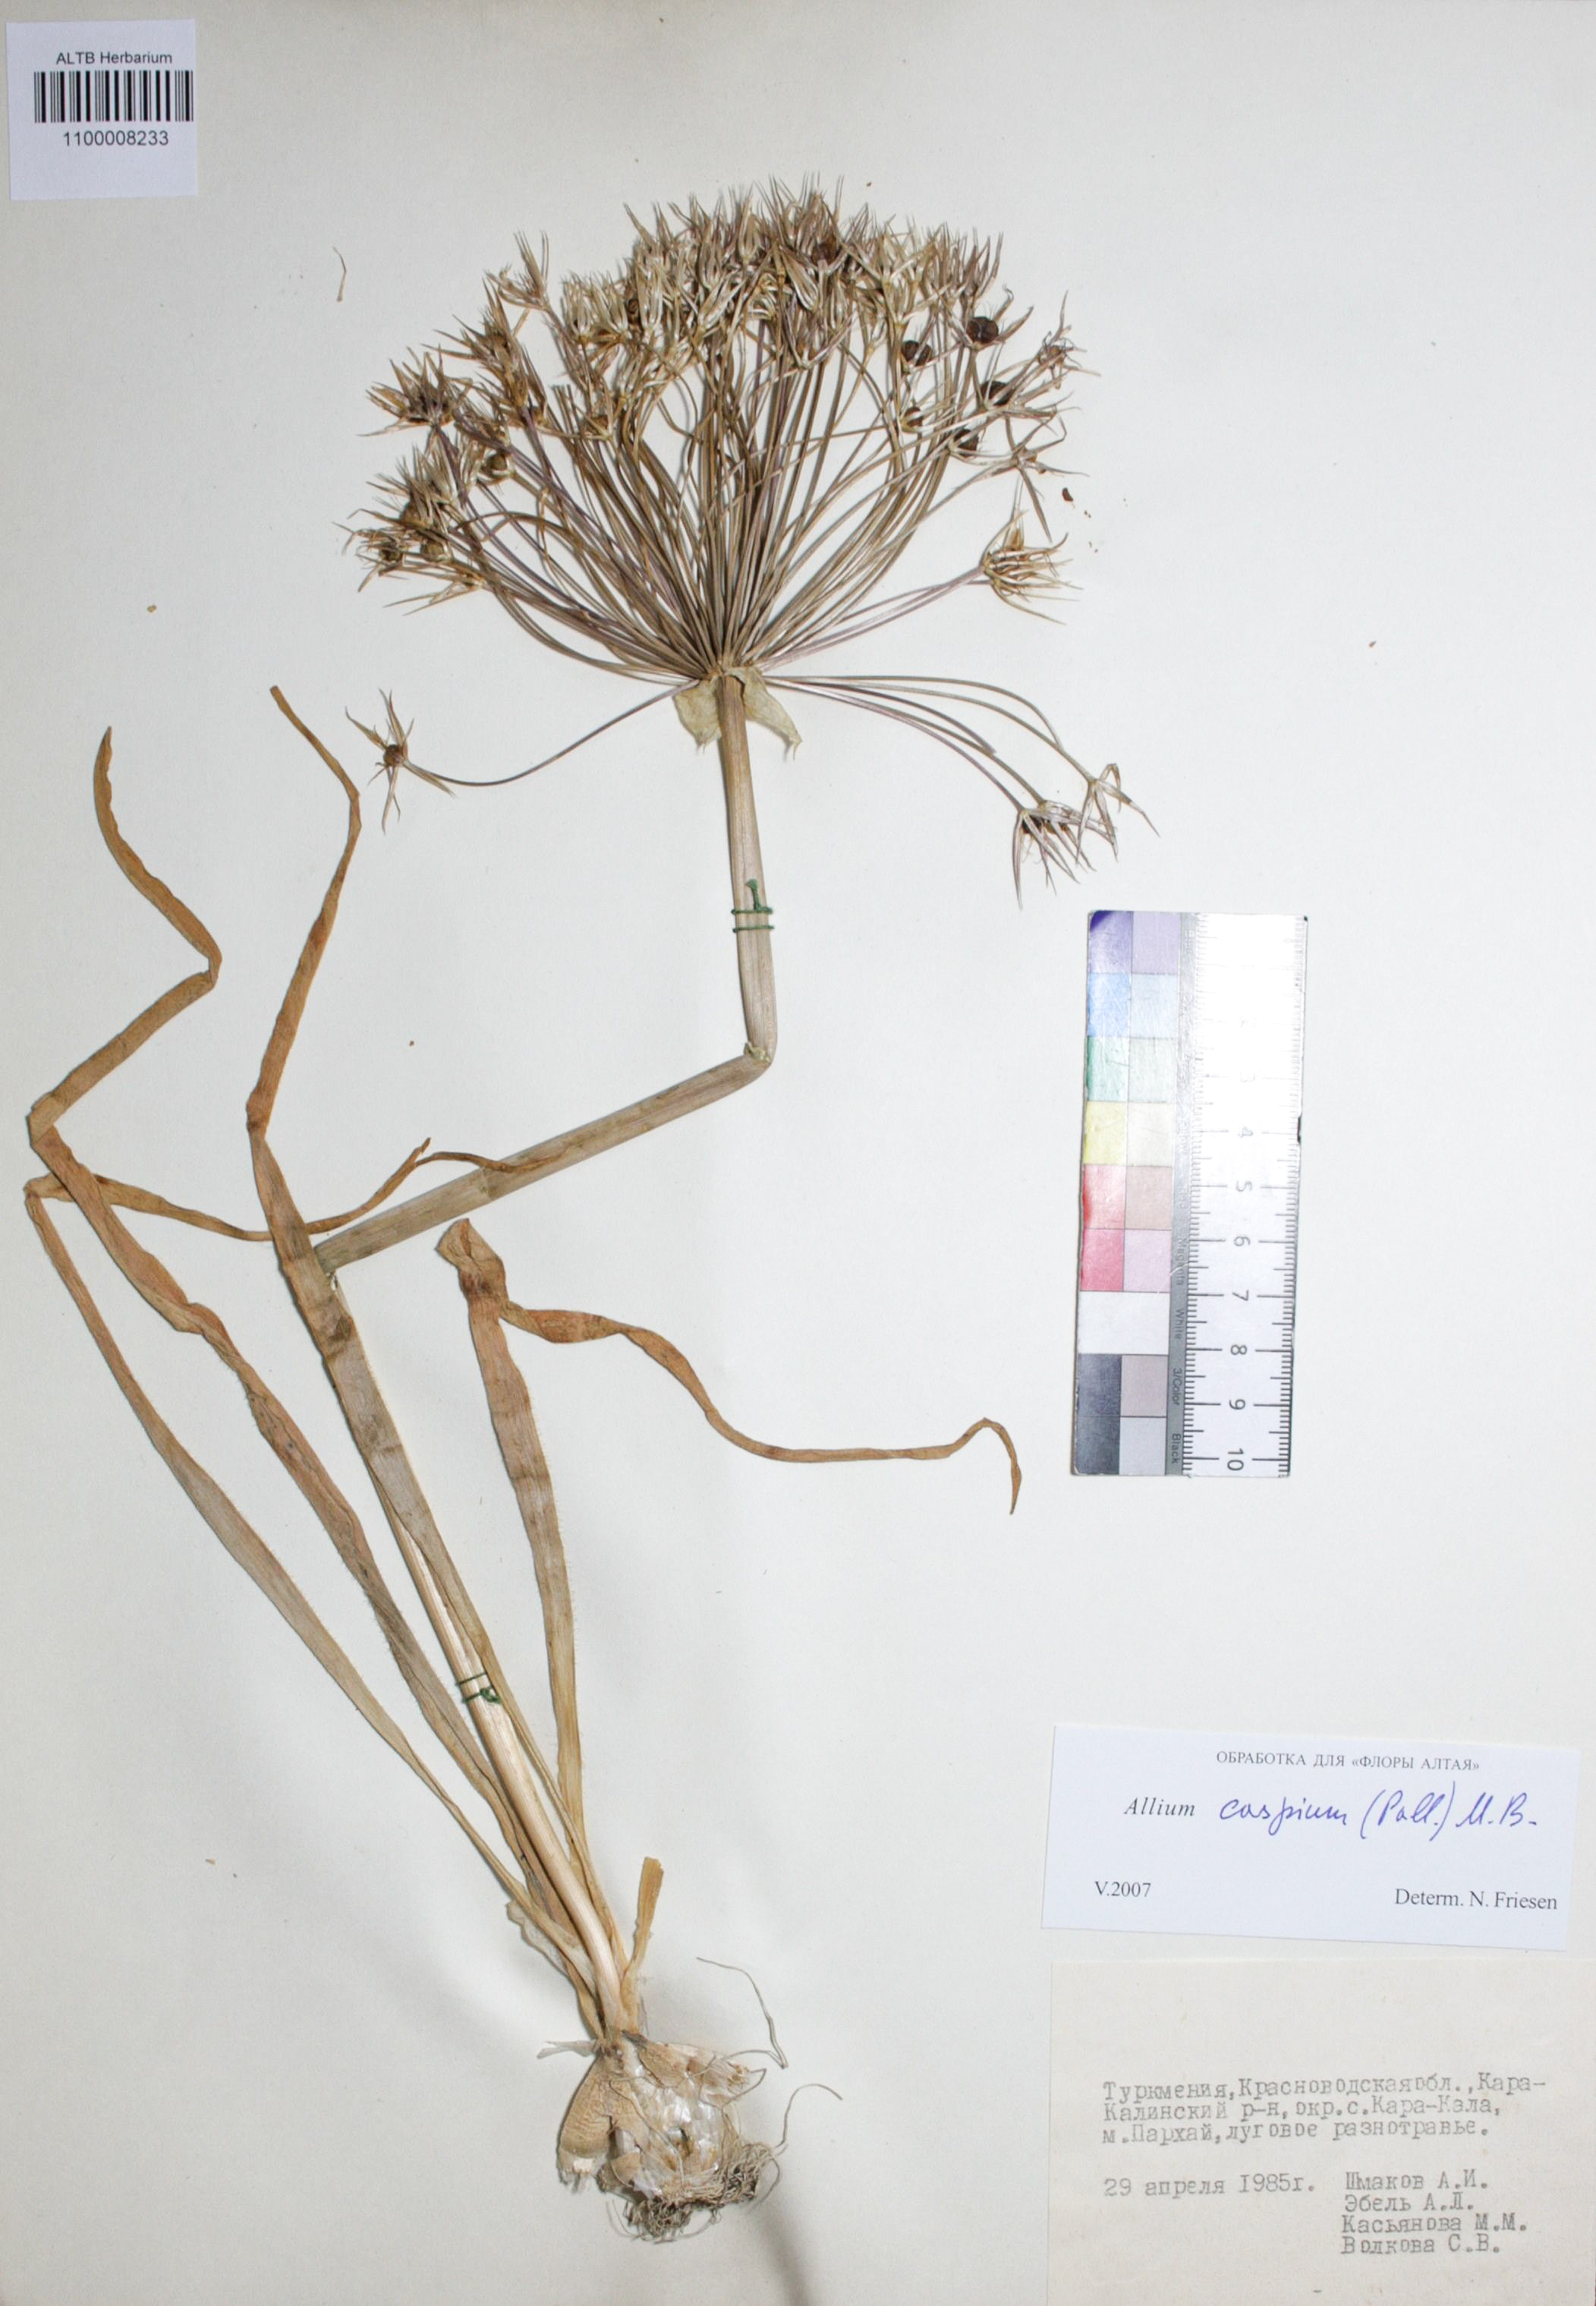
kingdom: Plantae
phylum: Tracheophyta
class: Liliopsida
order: Asparagales
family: Amaryllidaceae
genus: Allium
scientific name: Allium caspium
